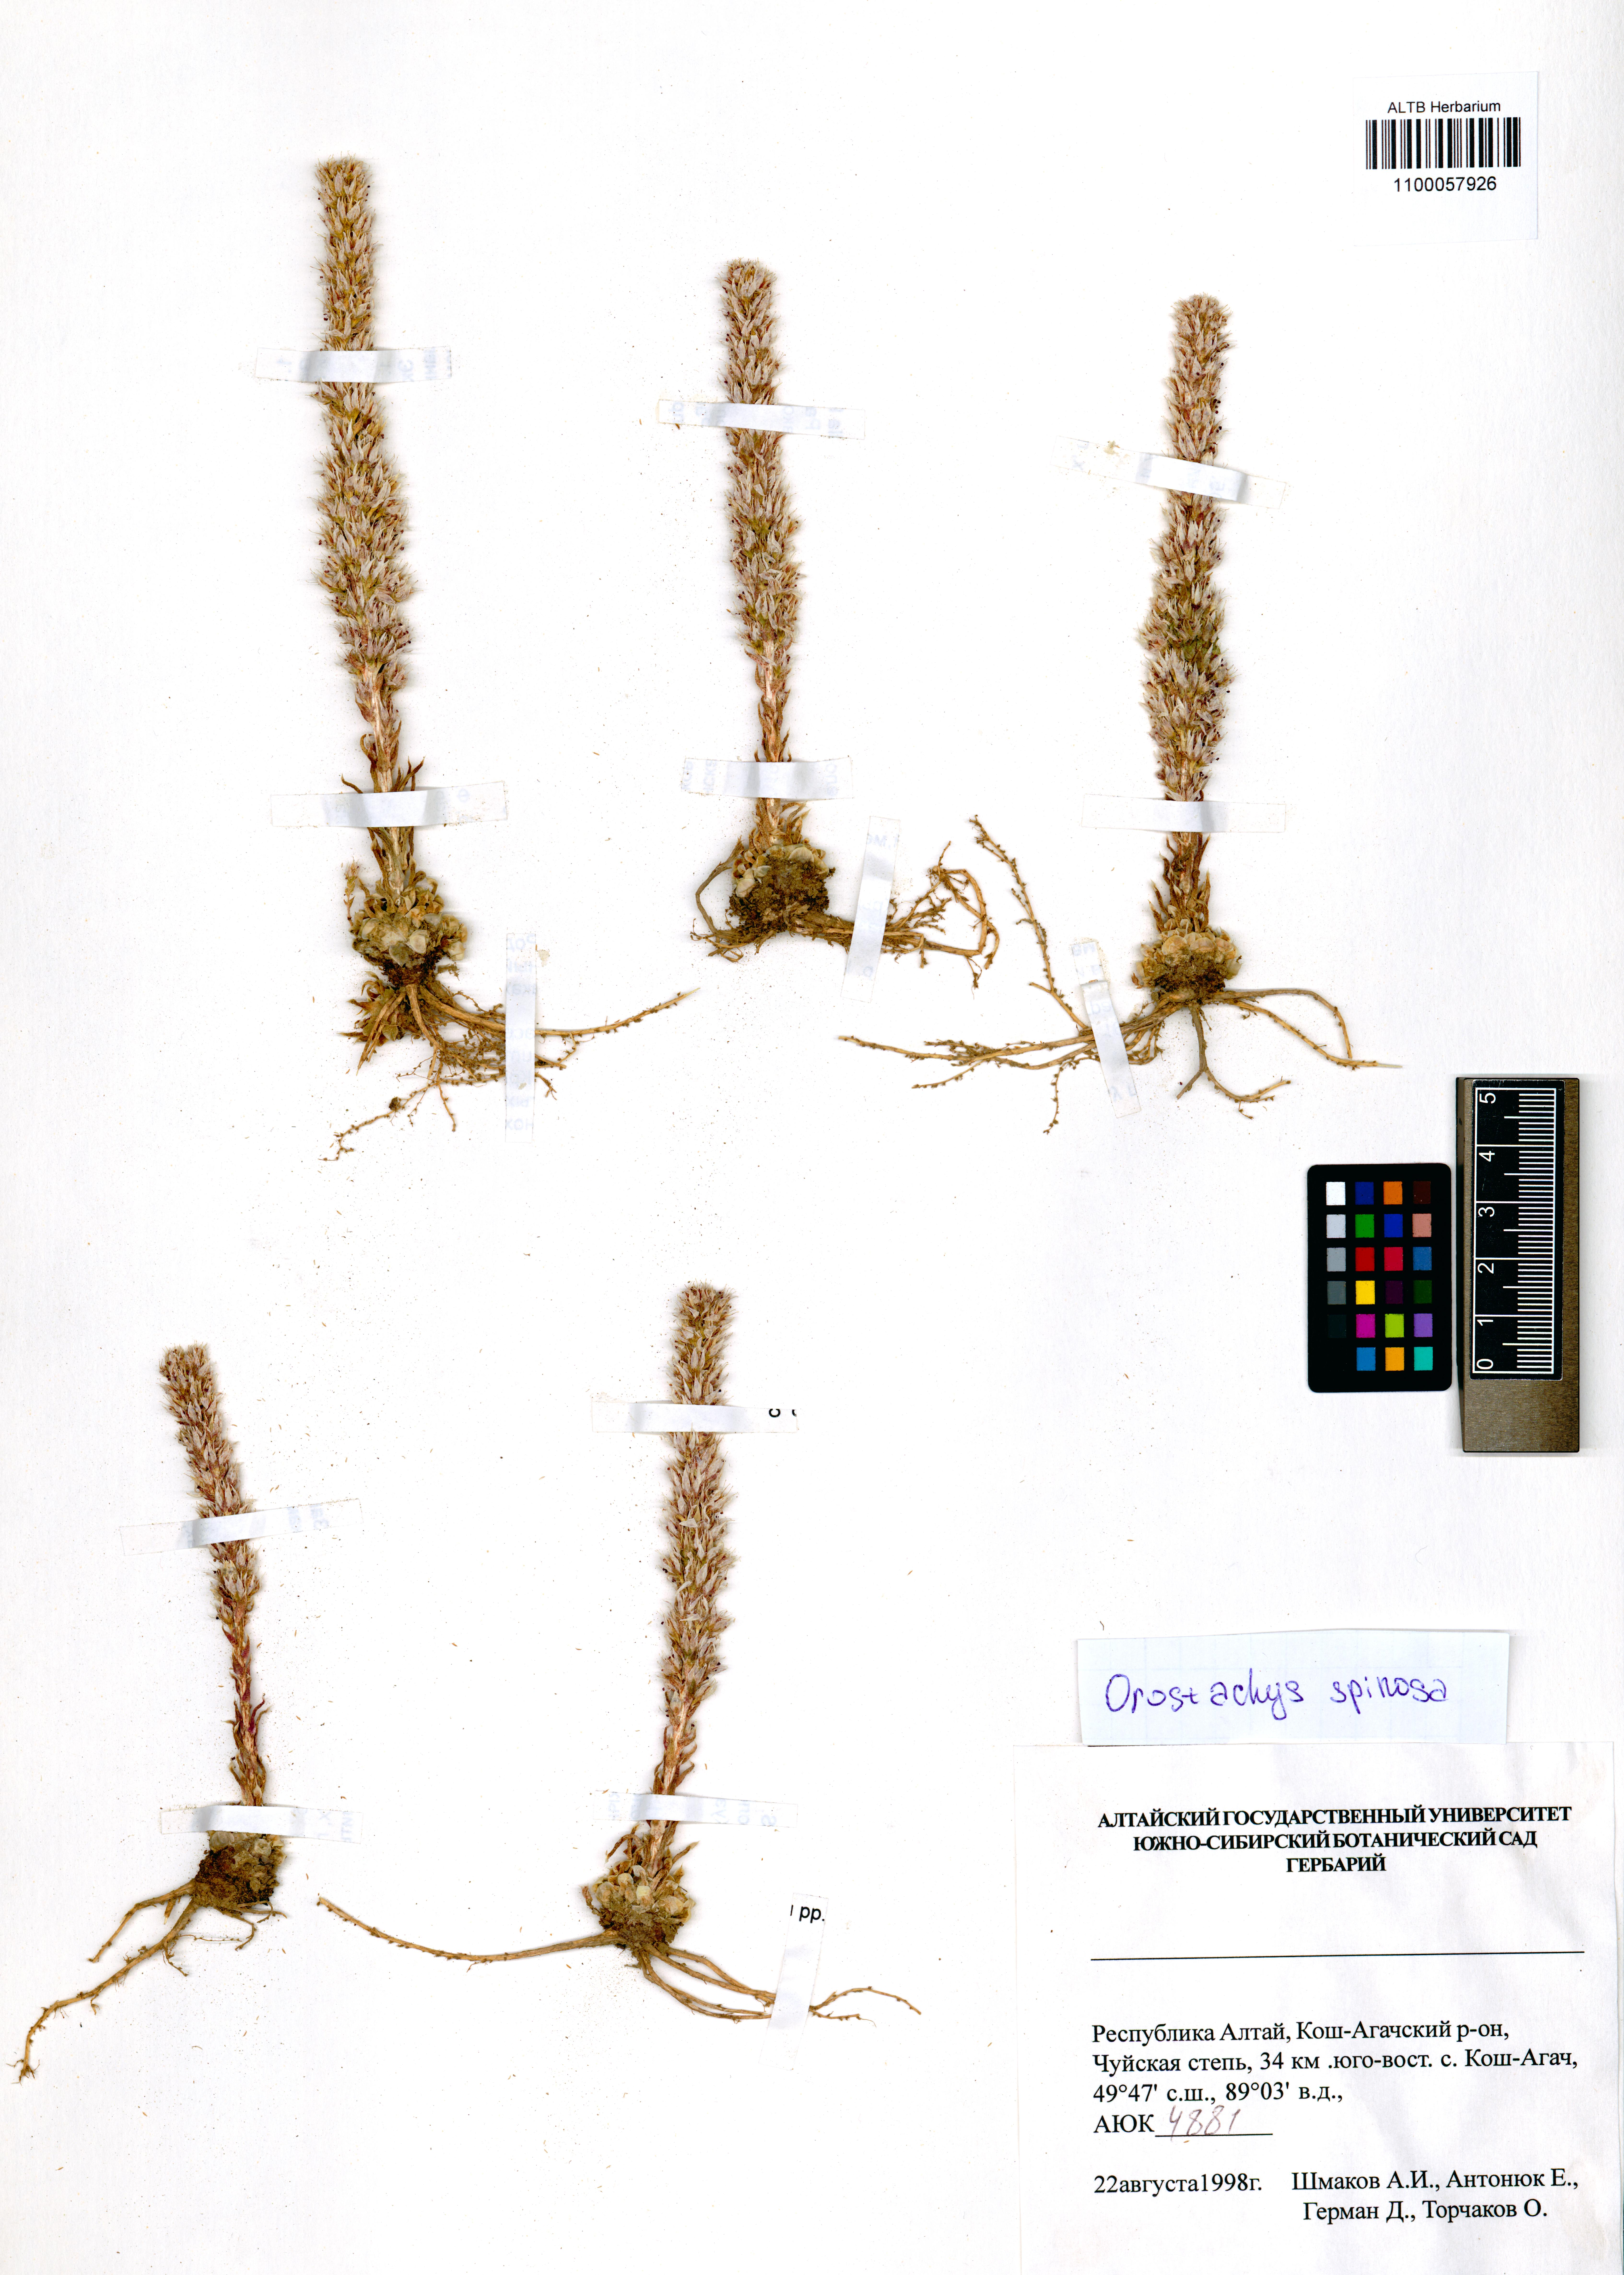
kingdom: Plantae
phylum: Tracheophyta
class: Magnoliopsida
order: Saxifragales
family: Crassulaceae
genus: Orostachys
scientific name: Orostachys spinosa
